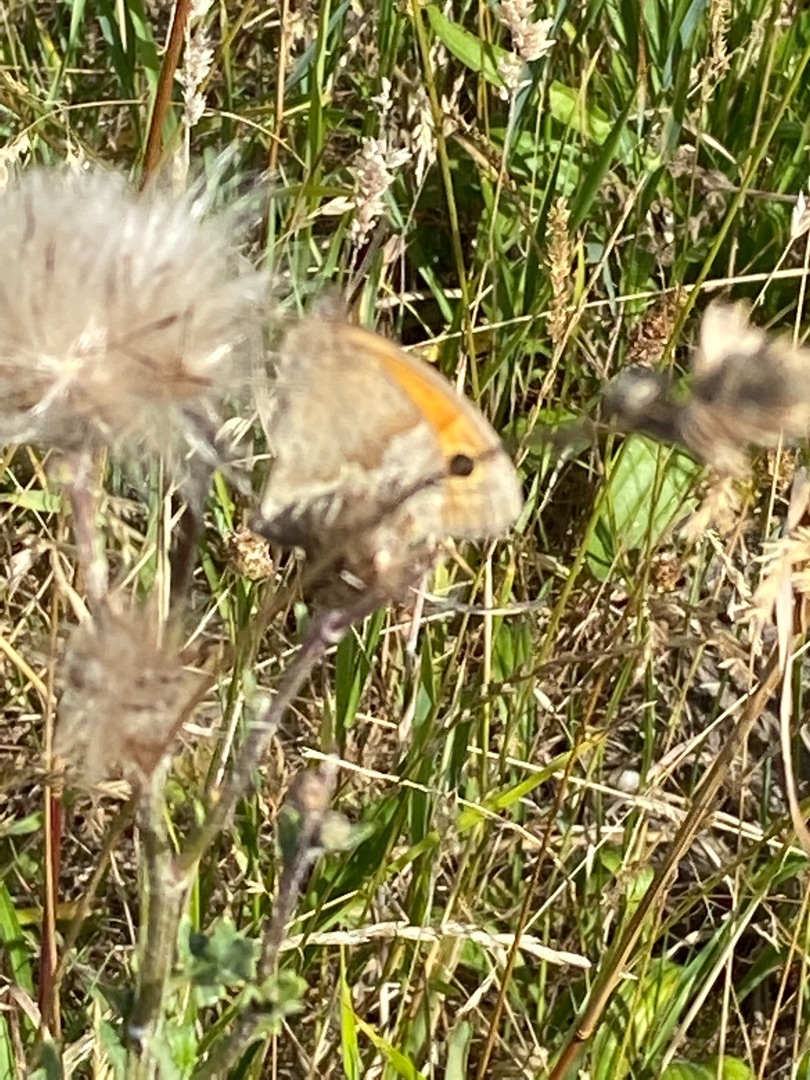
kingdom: Animalia
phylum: Arthropoda
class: Insecta
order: Lepidoptera
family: Nymphalidae
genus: Maniola
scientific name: Maniola jurtina
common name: Græsrandøje
